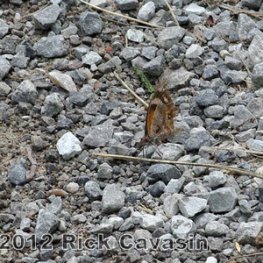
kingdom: Animalia
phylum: Arthropoda
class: Insecta
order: Lepidoptera
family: Nymphalidae
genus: Libytheana
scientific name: Libytheana carinenta
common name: American Snout
